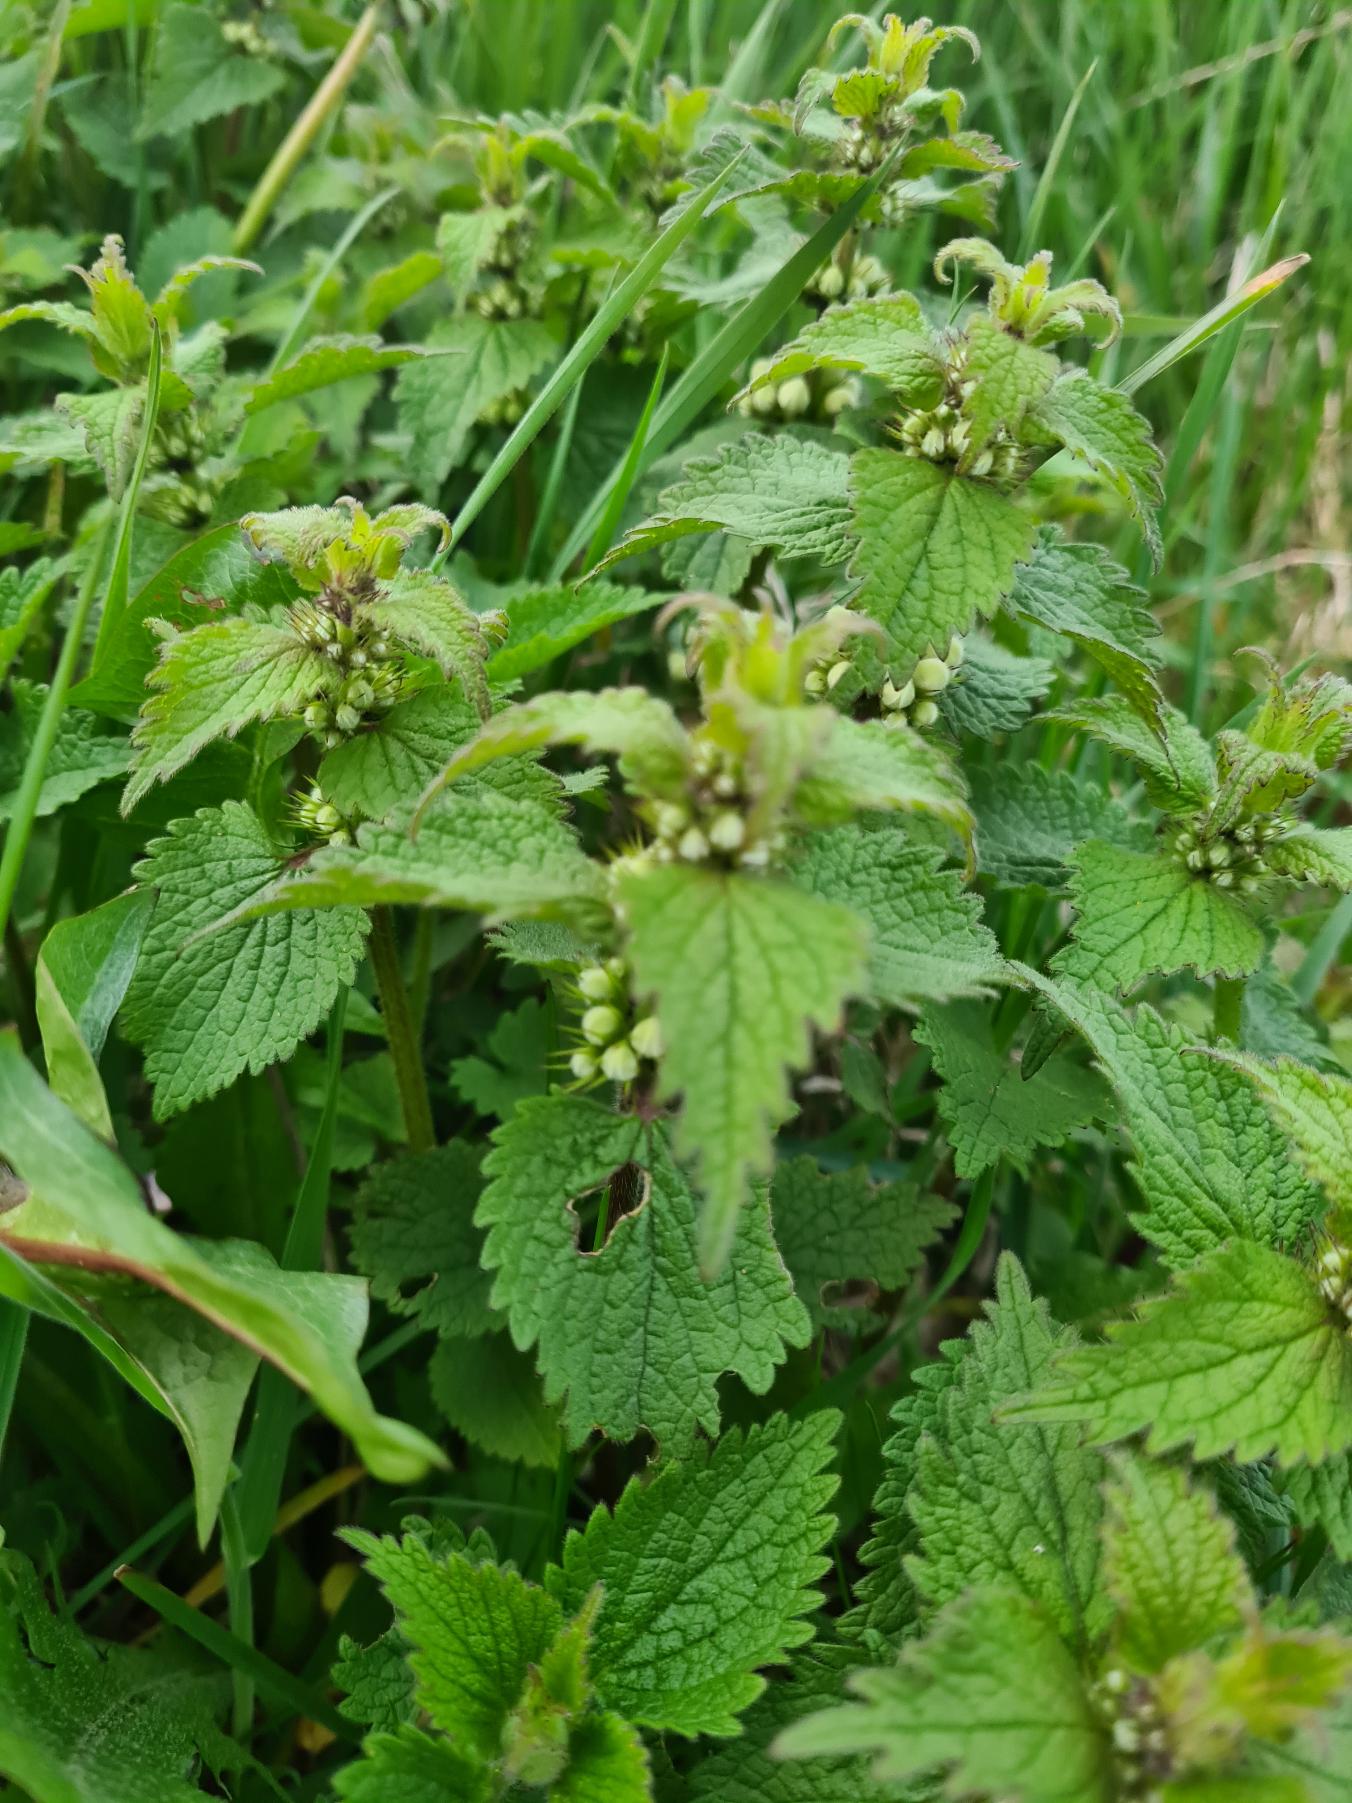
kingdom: Plantae
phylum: Tracheophyta
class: Magnoliopsida
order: Lamiales
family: Lamiaceae
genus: Lamium
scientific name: Lamium album
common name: Døvnælde
